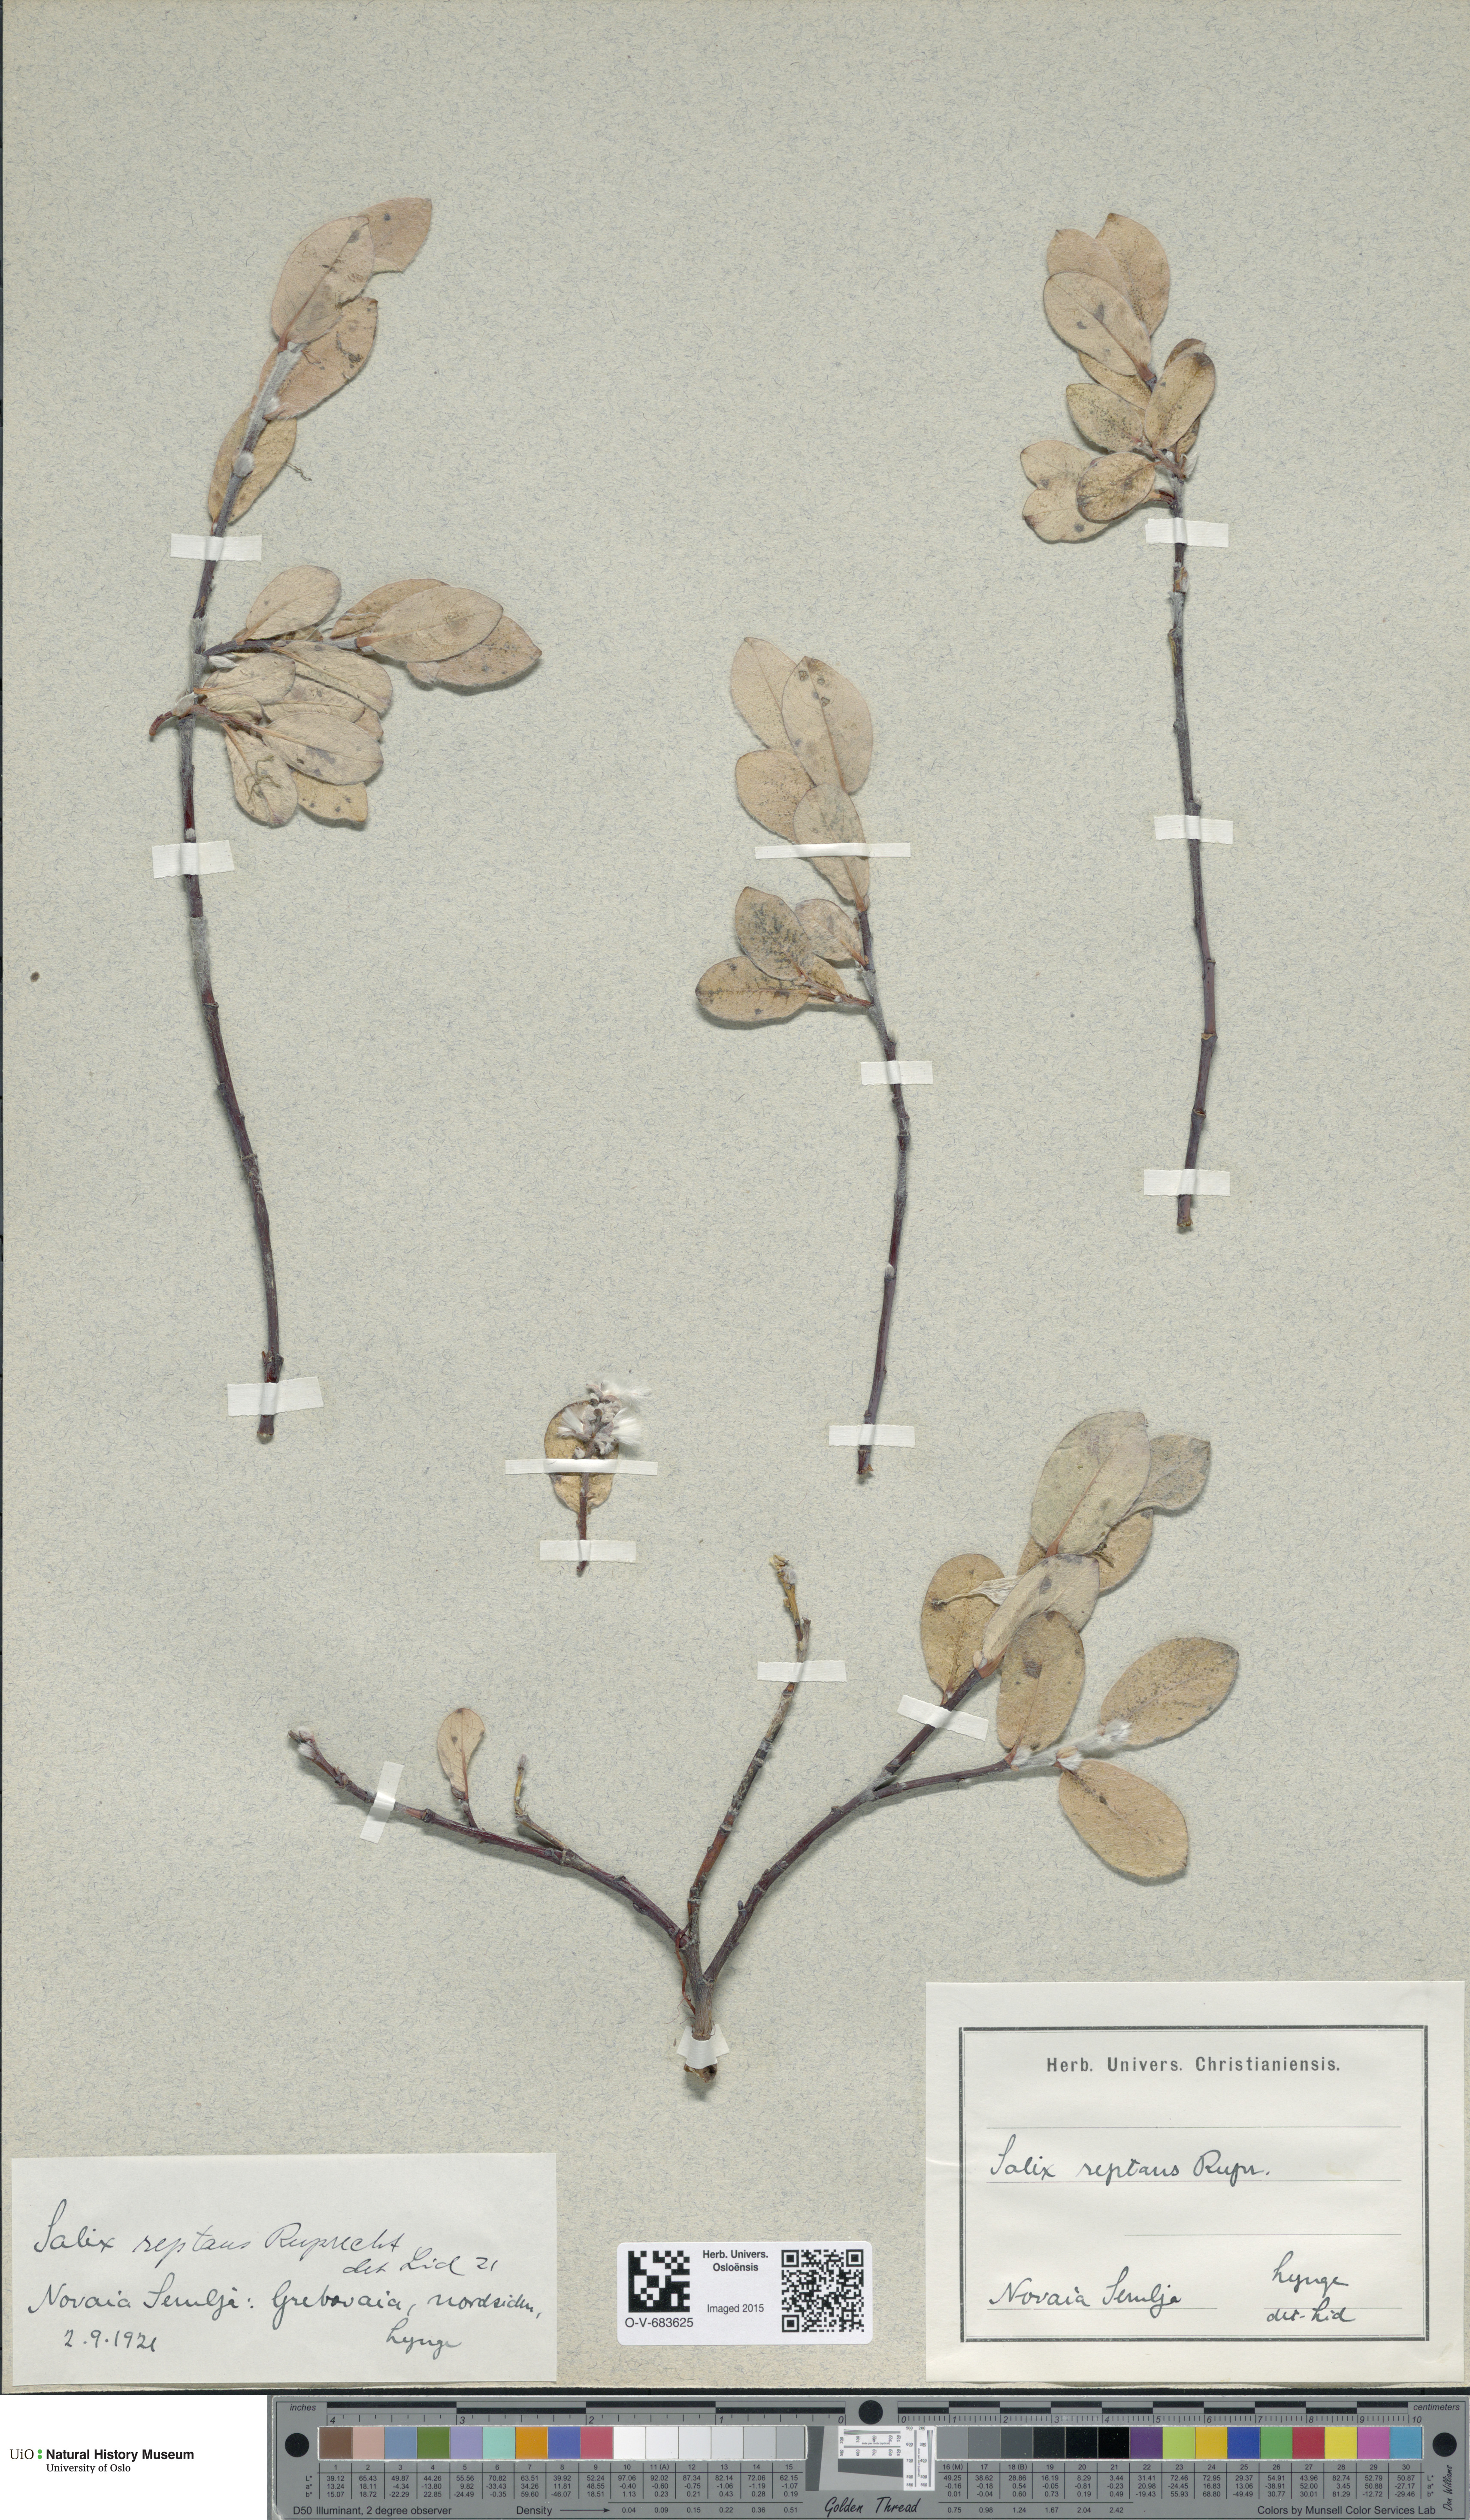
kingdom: Plantae
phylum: Tracheophyta
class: Magnoliopsida
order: Malpighiales
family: Salicaceae
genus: Salix
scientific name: Salix reptans
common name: Arctic creeping willow
